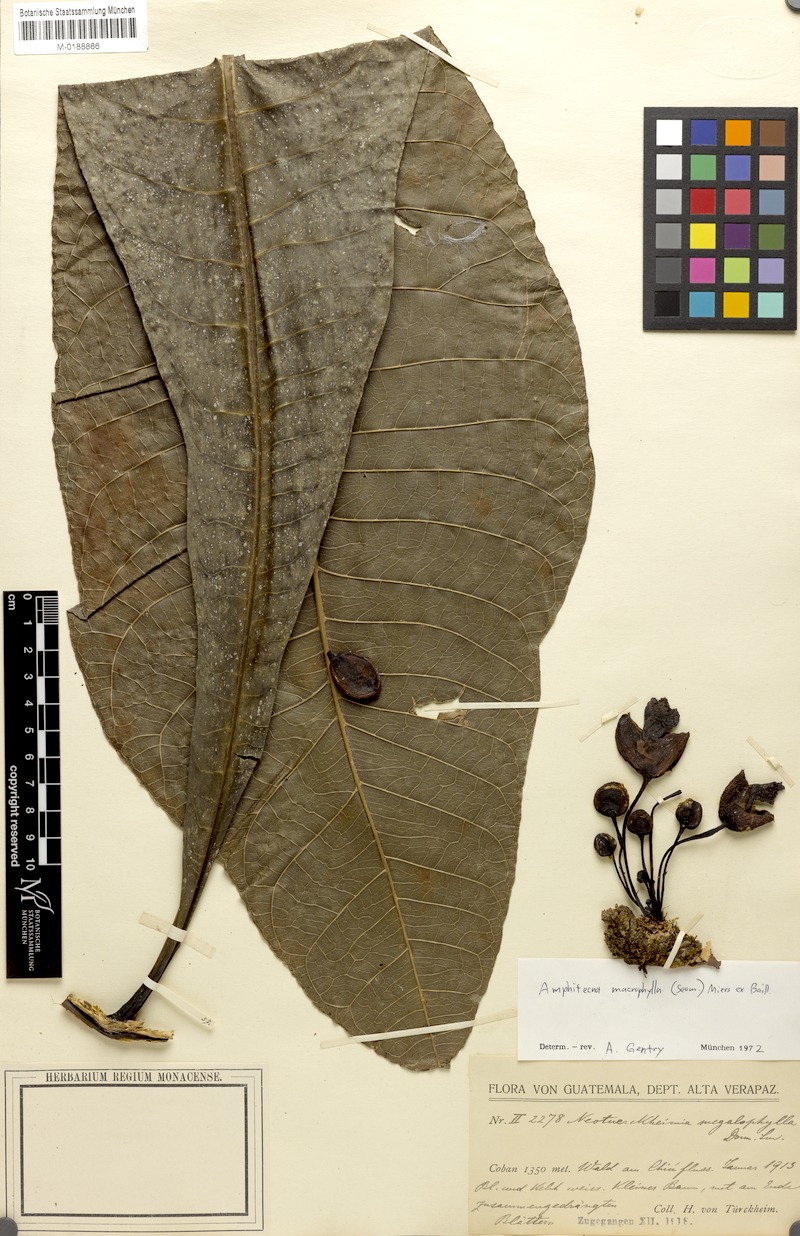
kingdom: Plantae
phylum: Tracheophyta
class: Magnoliopsida
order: Lamiales
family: Bignoniaceae
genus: Amphitecna
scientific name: Amphitecna megalophylla
